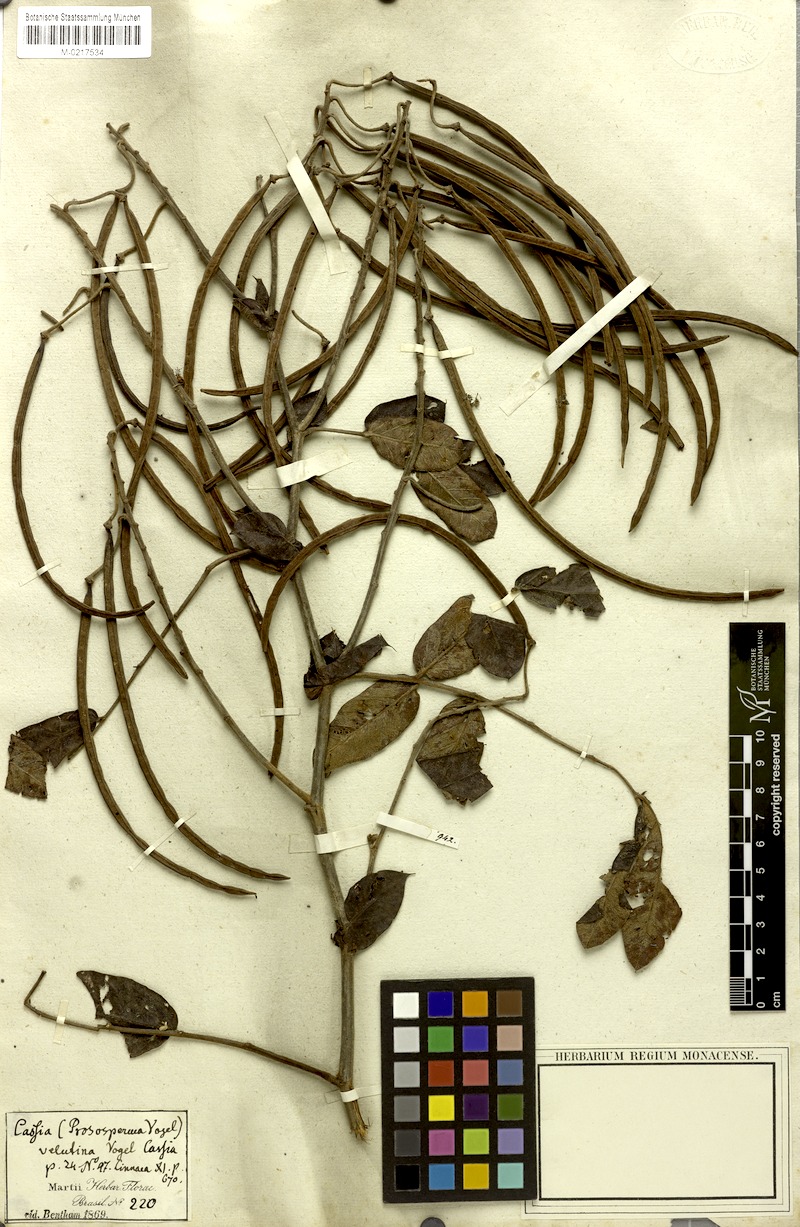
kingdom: Plantae
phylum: Tracheophyta
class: Magnoliopsida
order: Fabales
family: Fabaceae
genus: Senna
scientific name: Senna velutina
